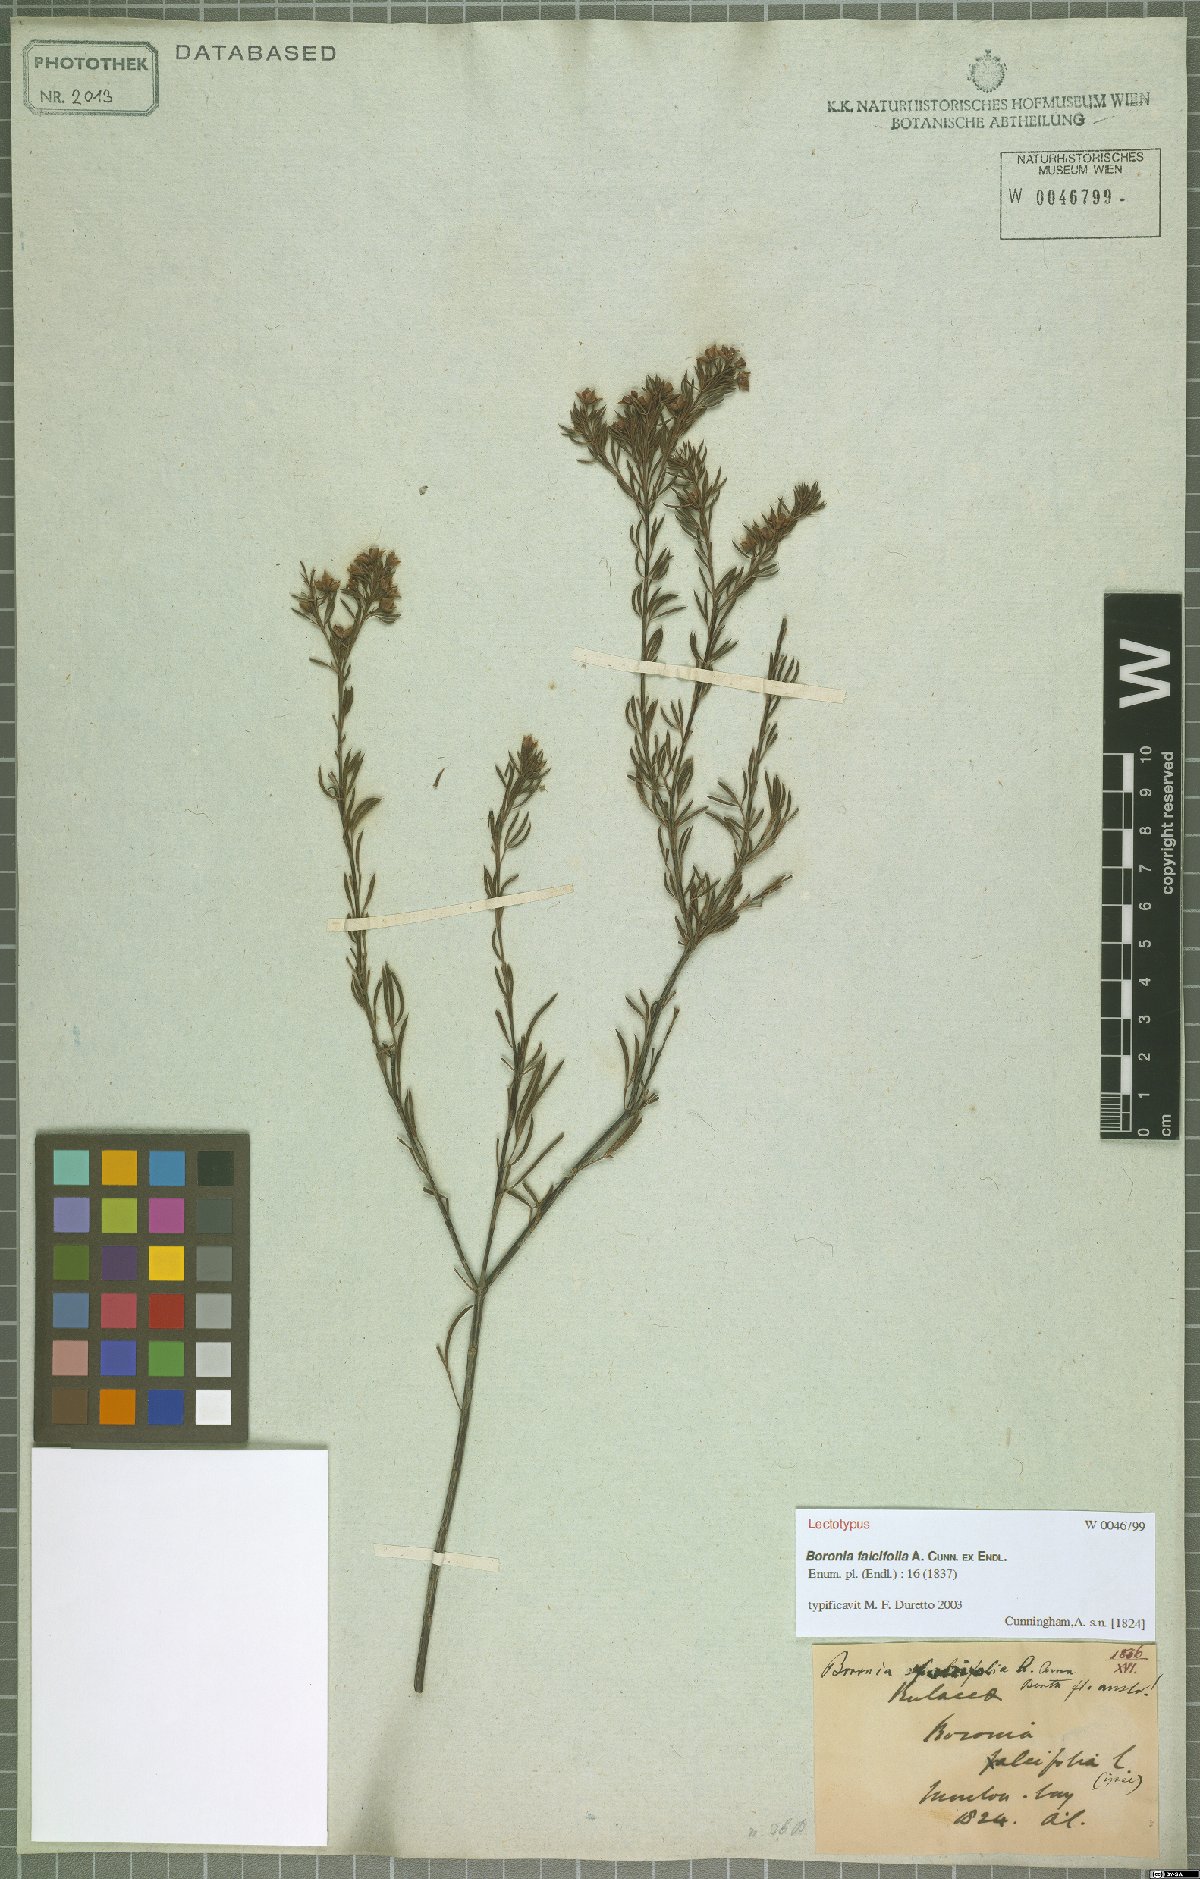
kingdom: Plantae
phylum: Tracheophyta
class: Magnoliopsida
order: Sapindales
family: Rutaceae
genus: Boronia
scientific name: Boronia falcifolia
